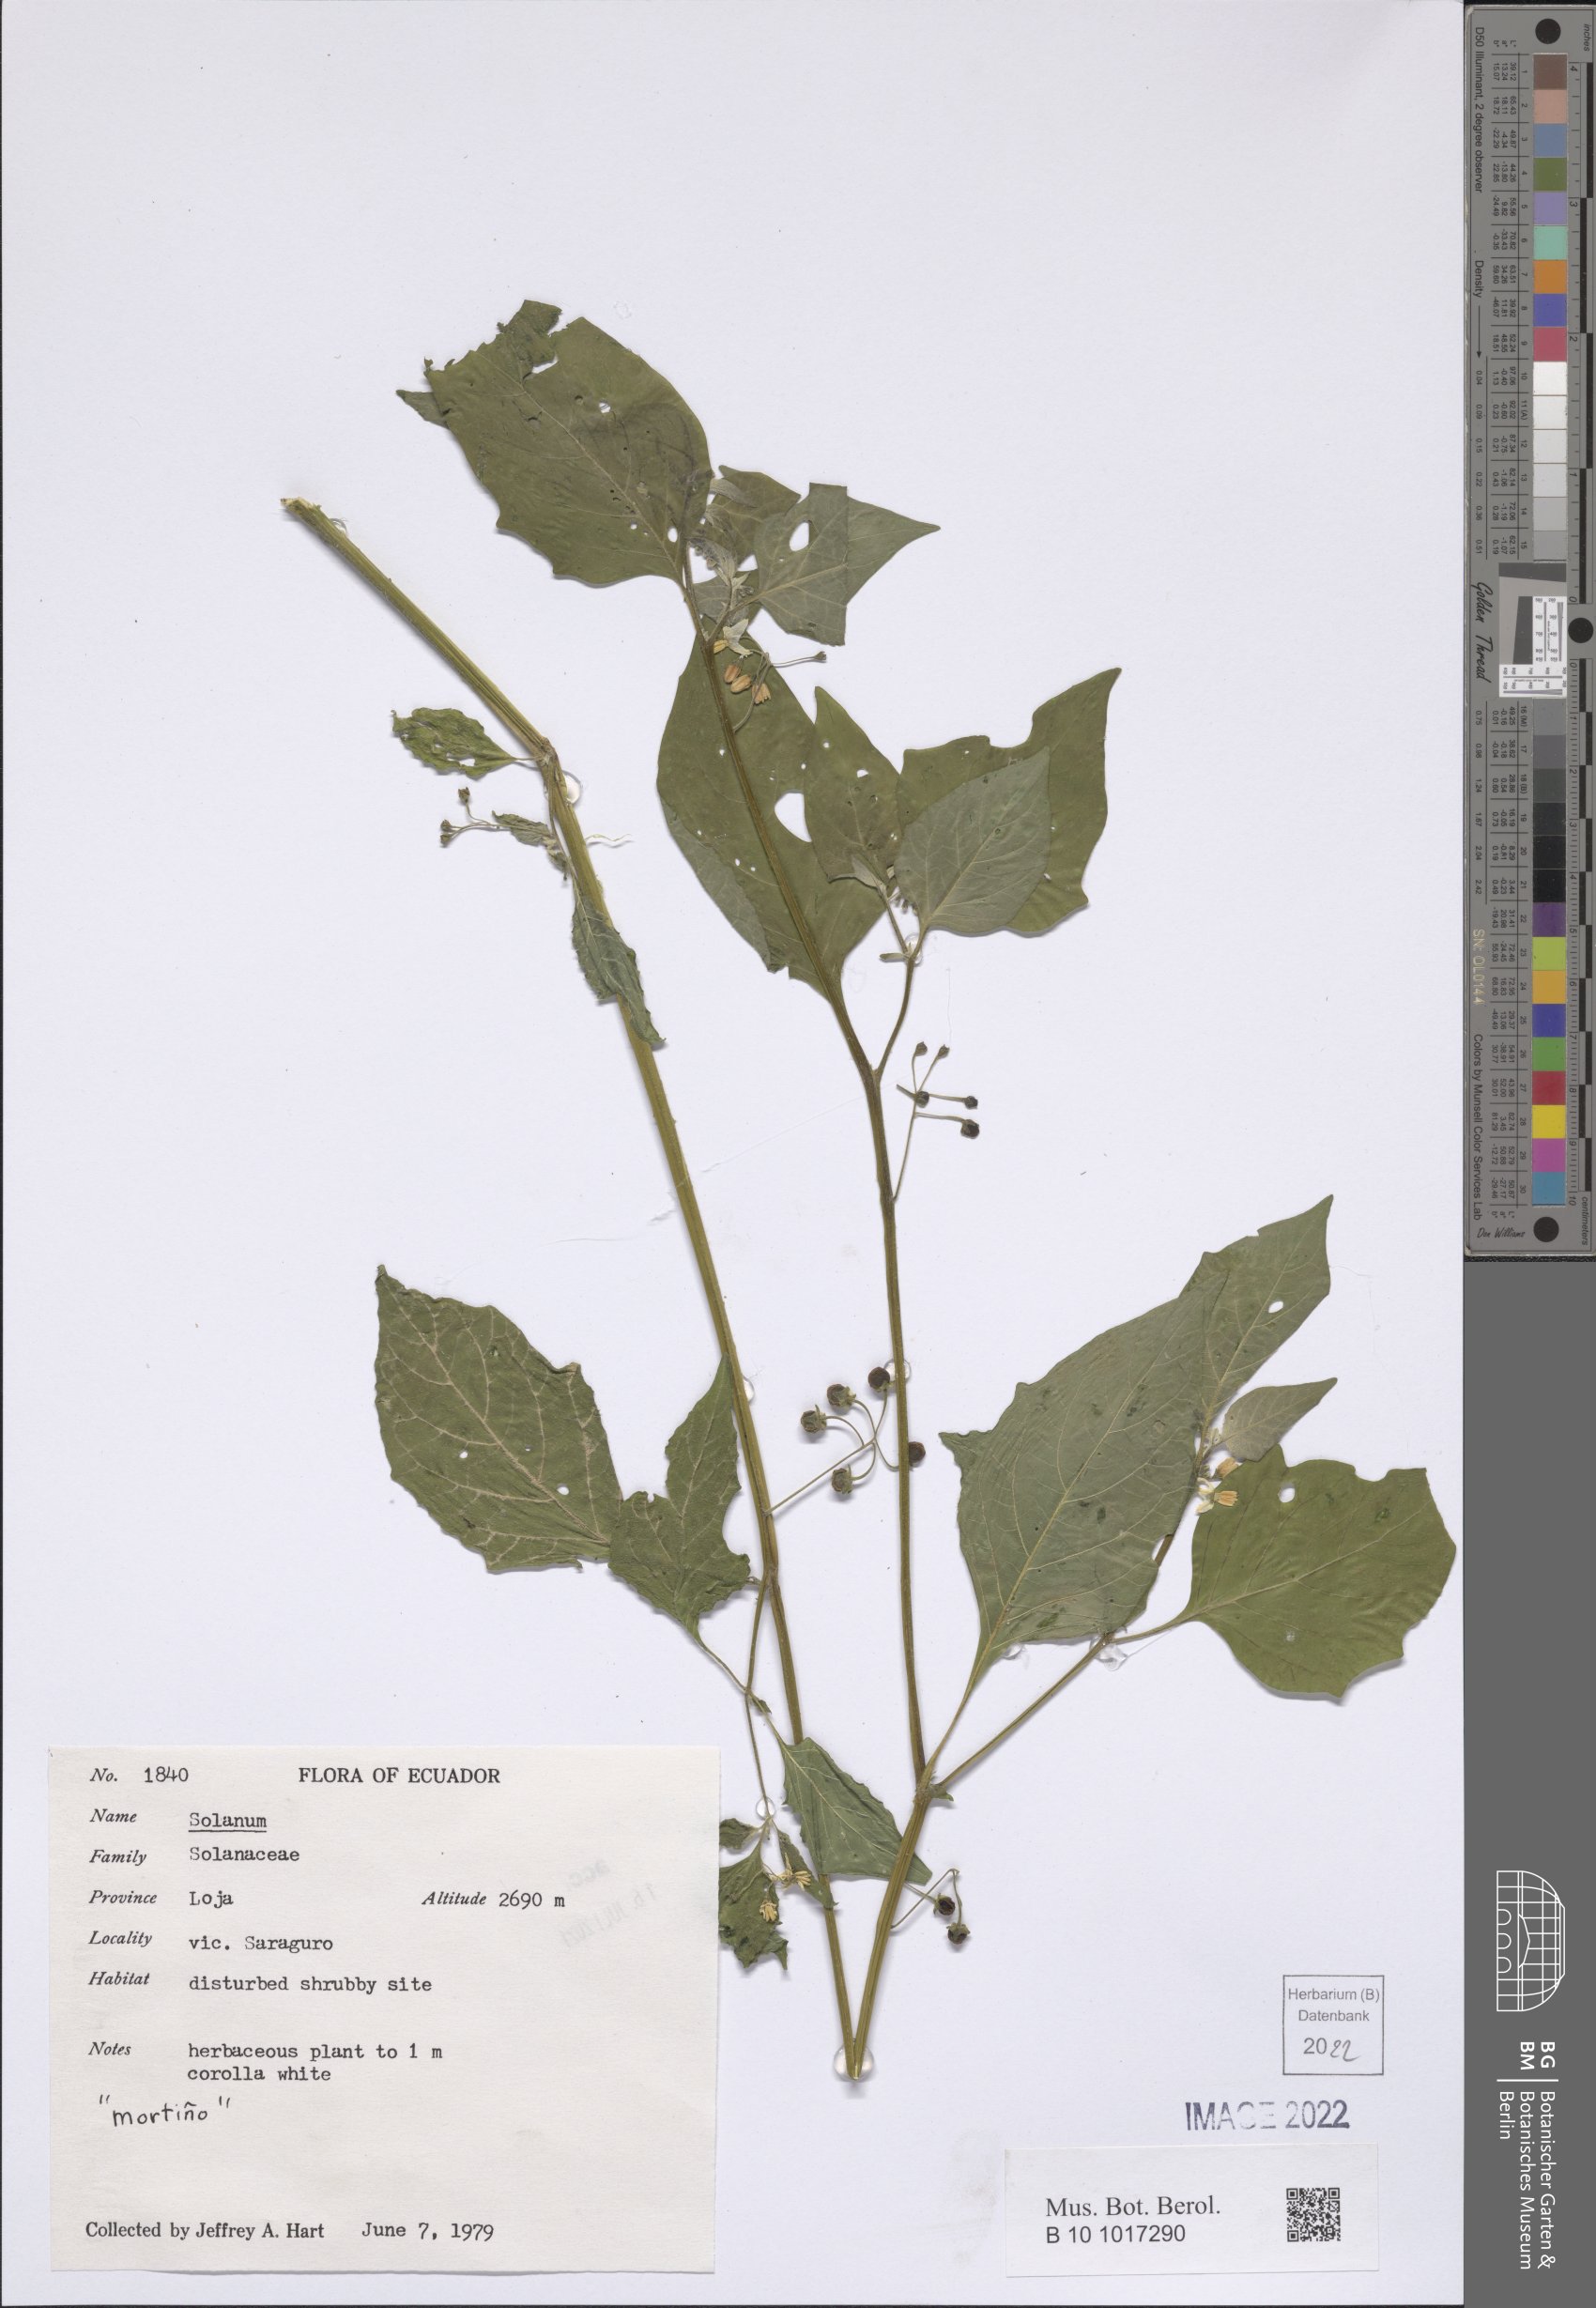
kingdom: Plantae
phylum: Tracheophyta
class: Magnoliopsida
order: Solanales
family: Solanaceae
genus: Solanum
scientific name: Solanum
